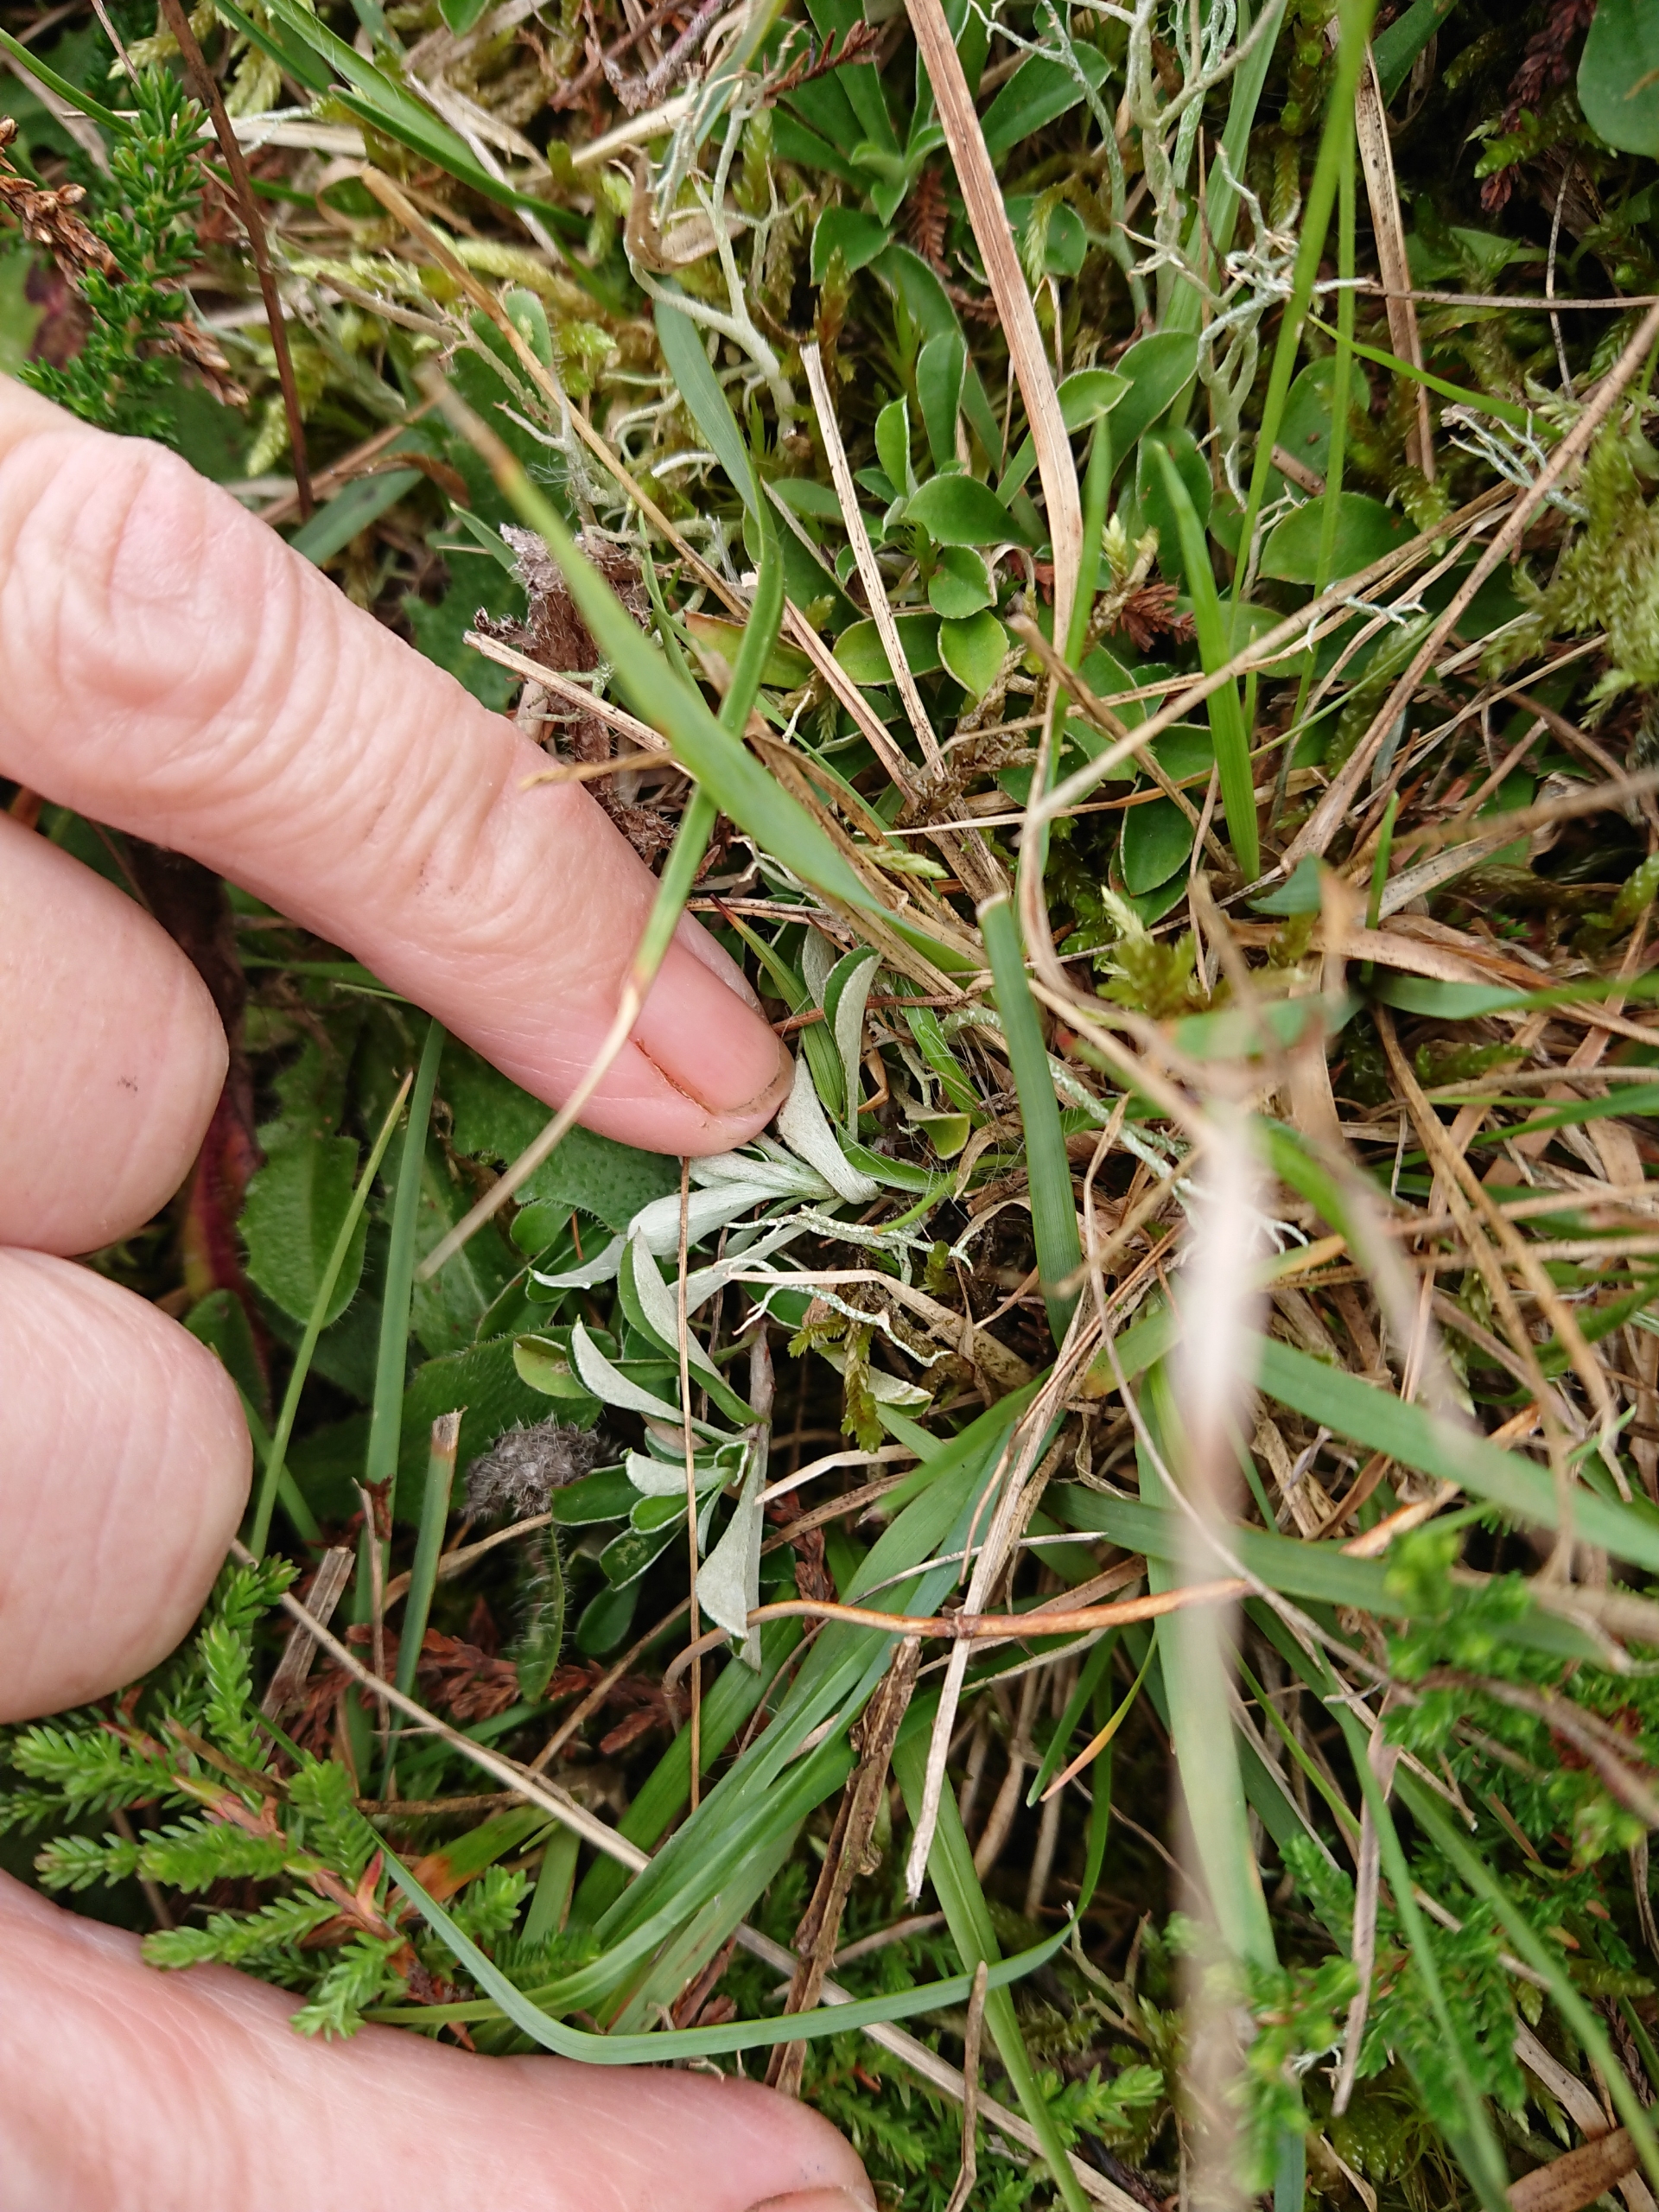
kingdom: Plantae
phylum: Tracheophyta
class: Magnoliopsida
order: Asterales
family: Asteraceae
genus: Antennaria
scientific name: Antennaria dioica
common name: Kattefod
